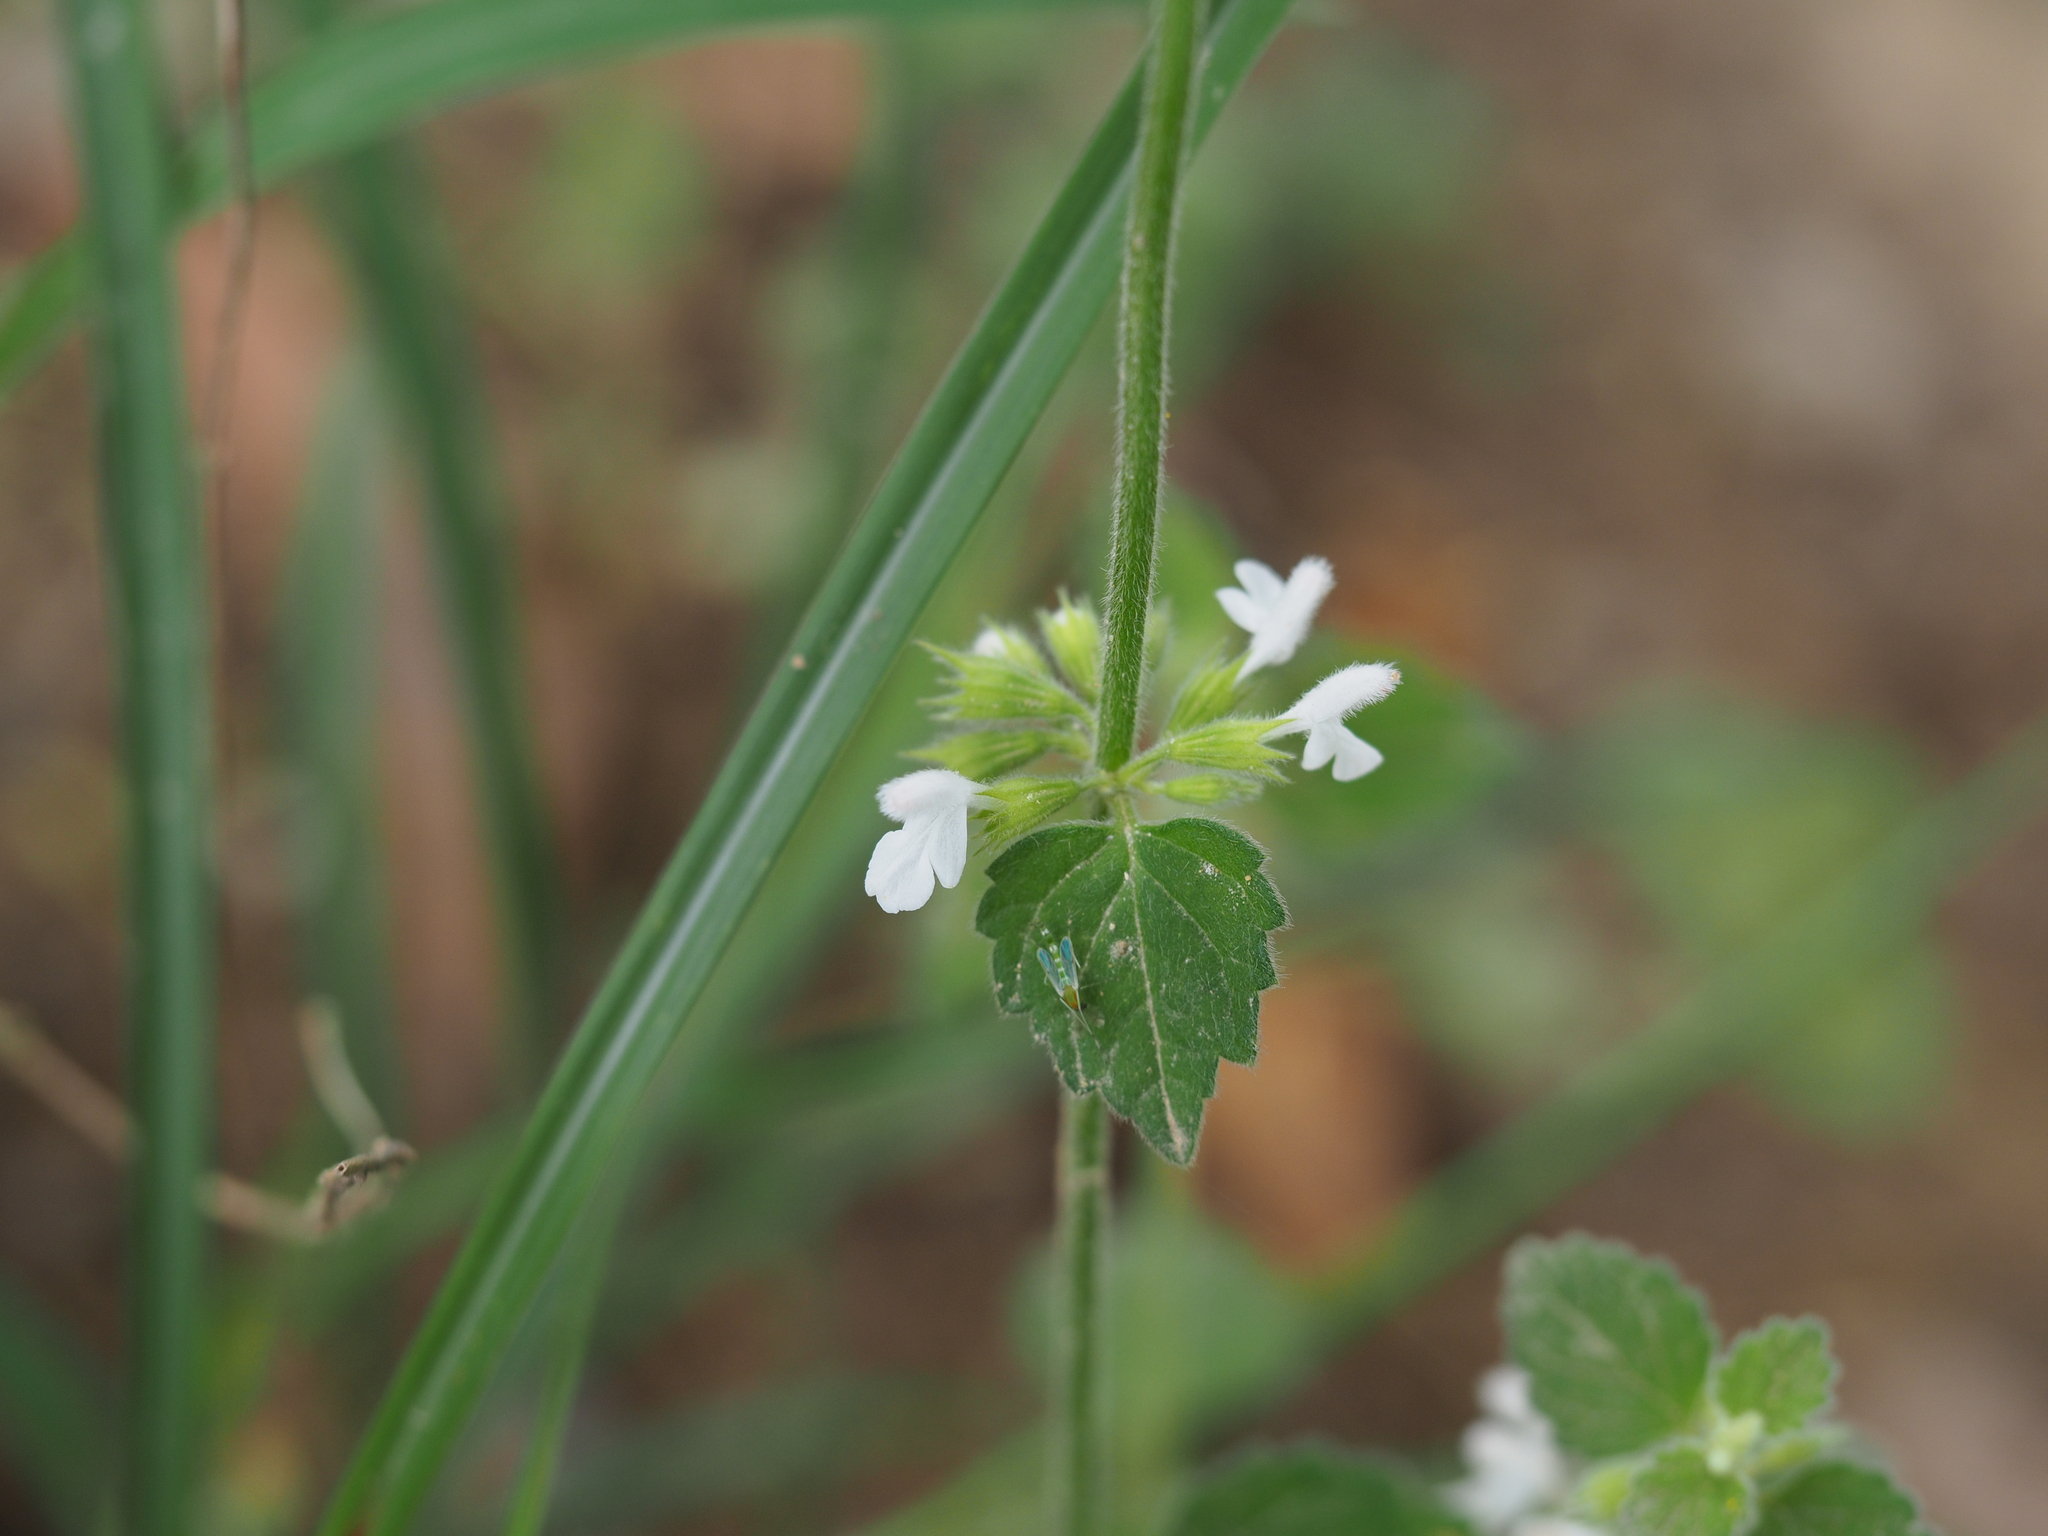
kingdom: Plantae
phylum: Tracheophyta
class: Magnoliopsida
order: Lamiales
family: Lamiaceae
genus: Leucas
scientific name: Leucas chinensis
